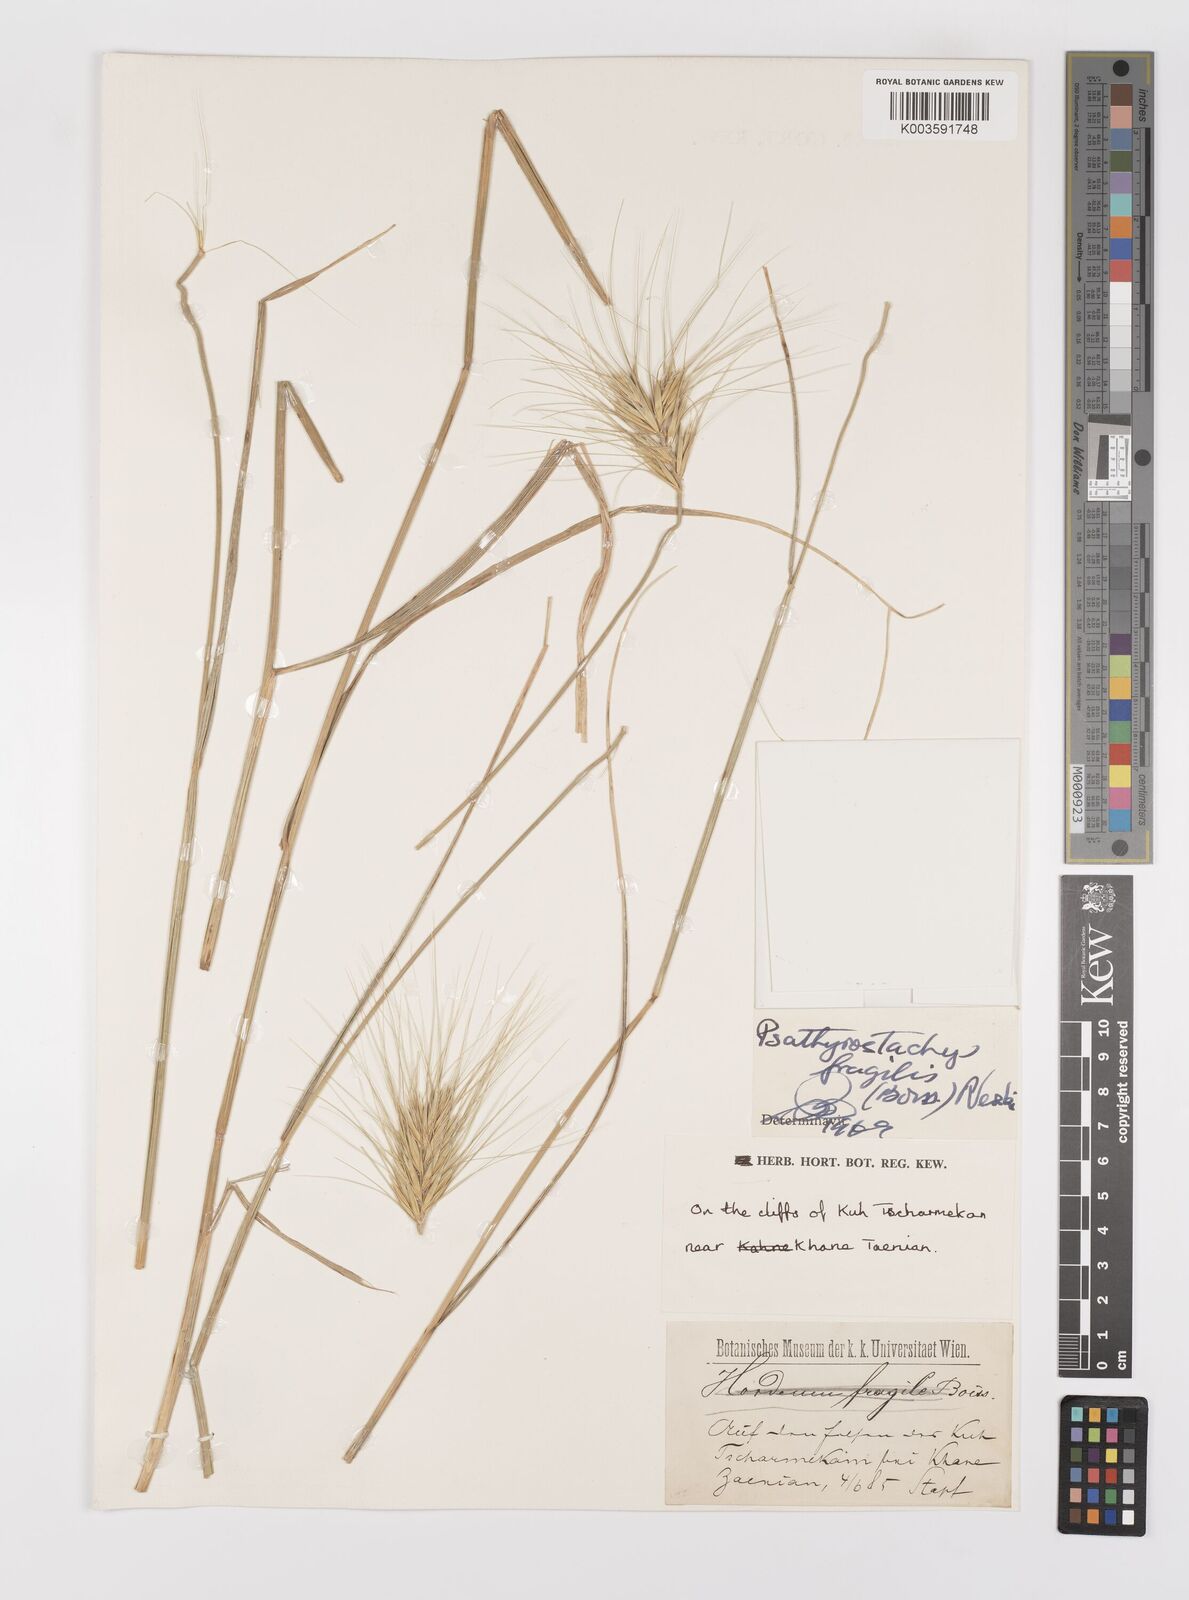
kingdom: Plantae
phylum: Tracheophyta
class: Liliopsida
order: Poales
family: Poaceae
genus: Psathyrostachys
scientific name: Psathyrostachys fragilis
